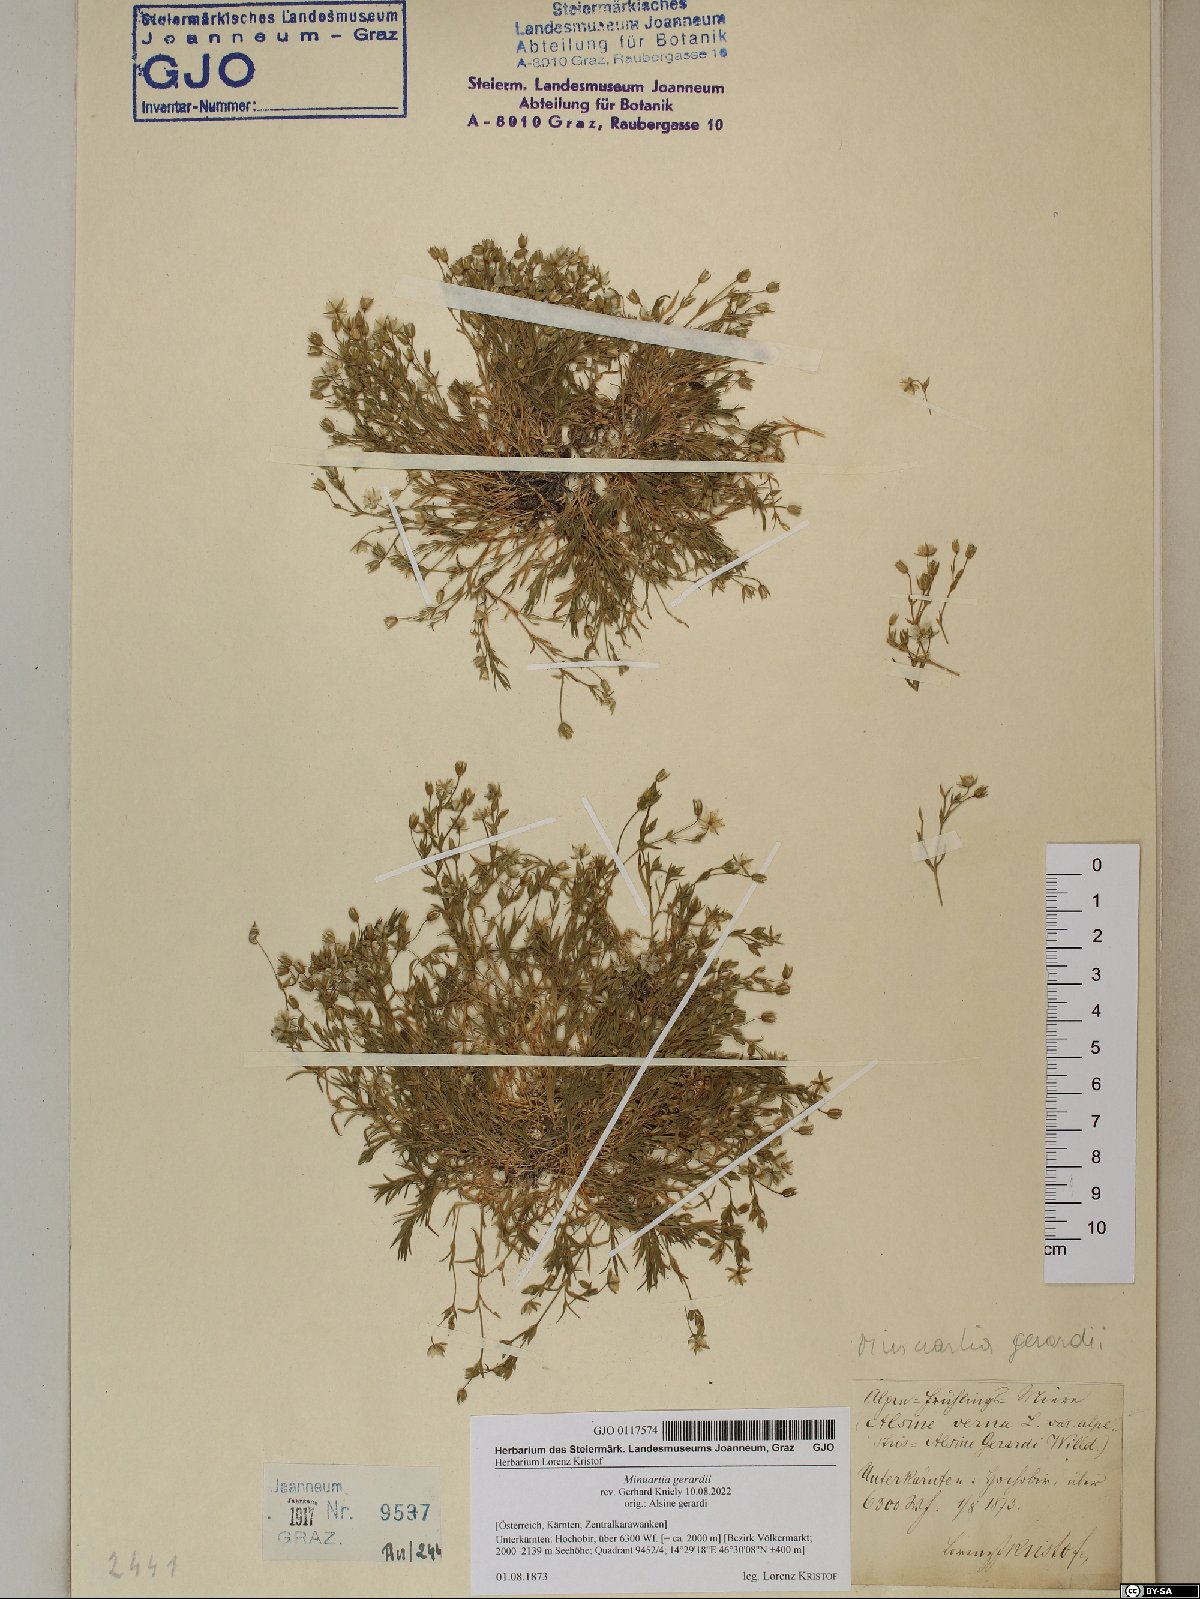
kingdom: Plantae
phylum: Tracheophyta
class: Magnoliopsida
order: Caryophyllales
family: Caryophyllaceae
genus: Sabulina
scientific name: Sabulina verna
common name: Spring sandwort
